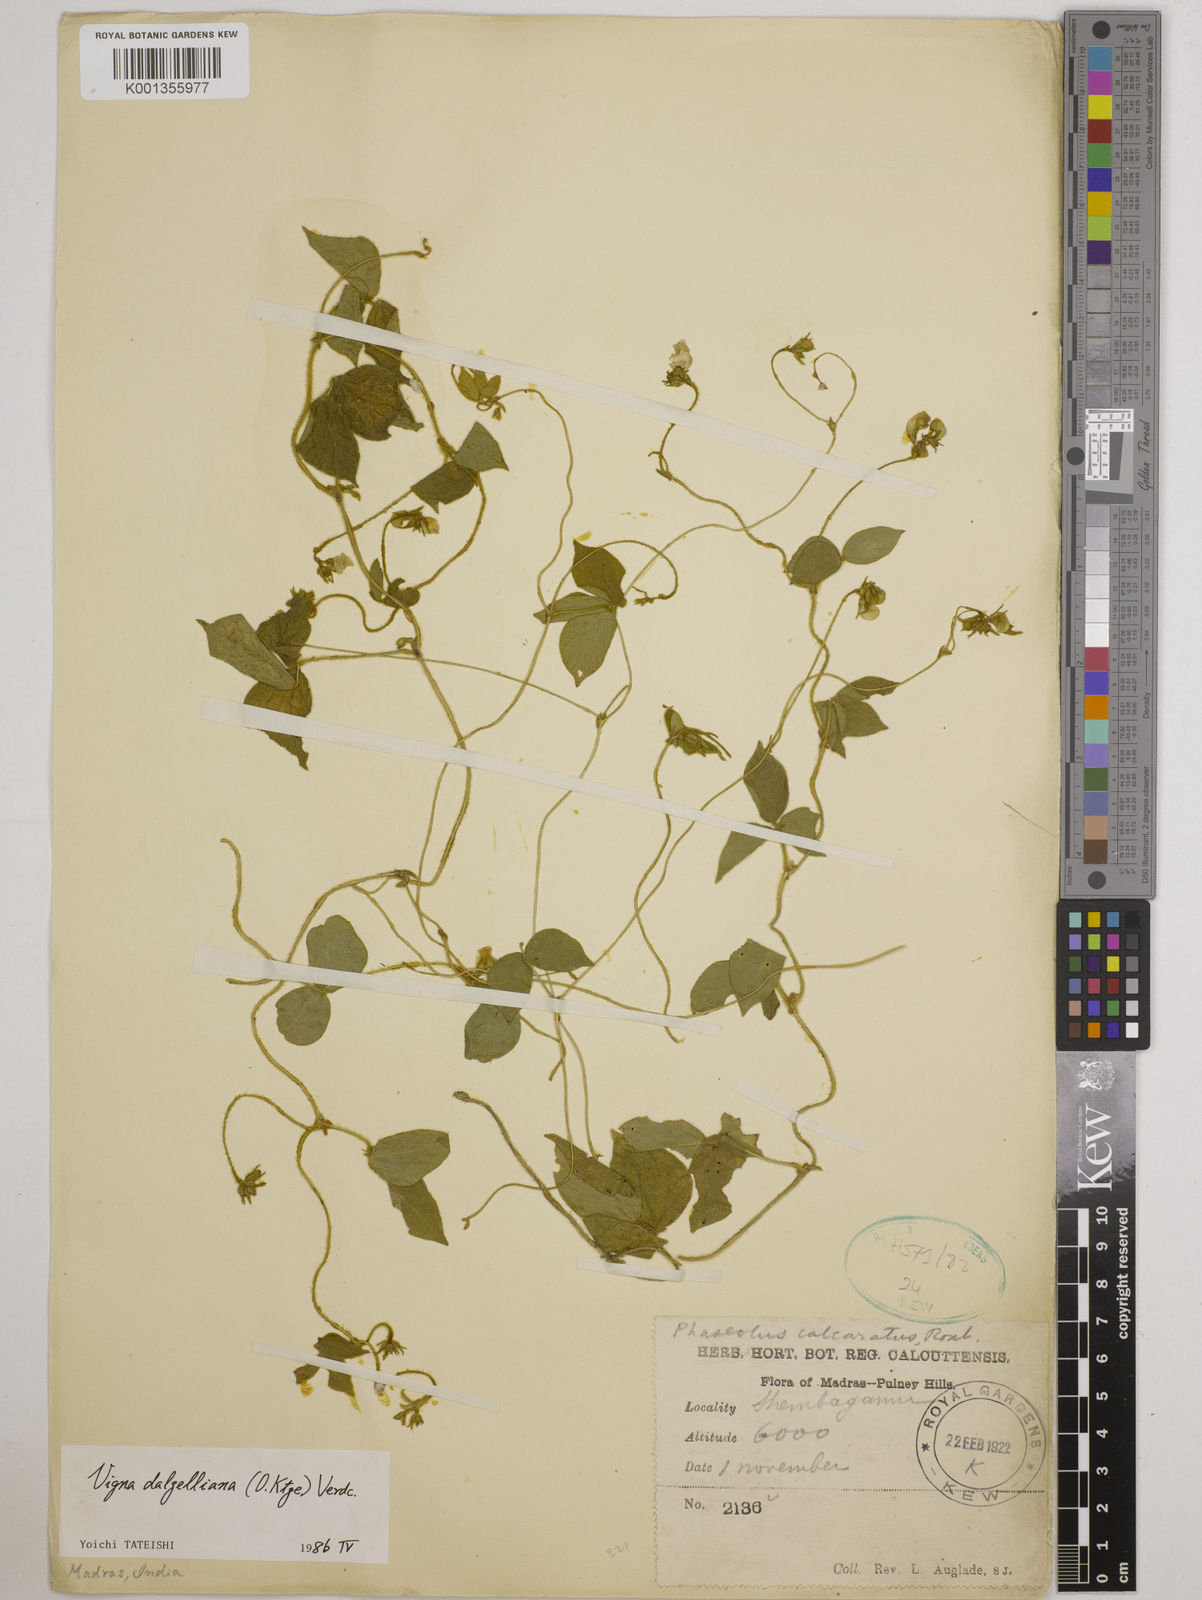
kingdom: Plantae
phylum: Tracheophyta
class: Magnoliopsida
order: Fabales
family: Fabaceae
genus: Vigna
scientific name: Vigna dalzelliana
